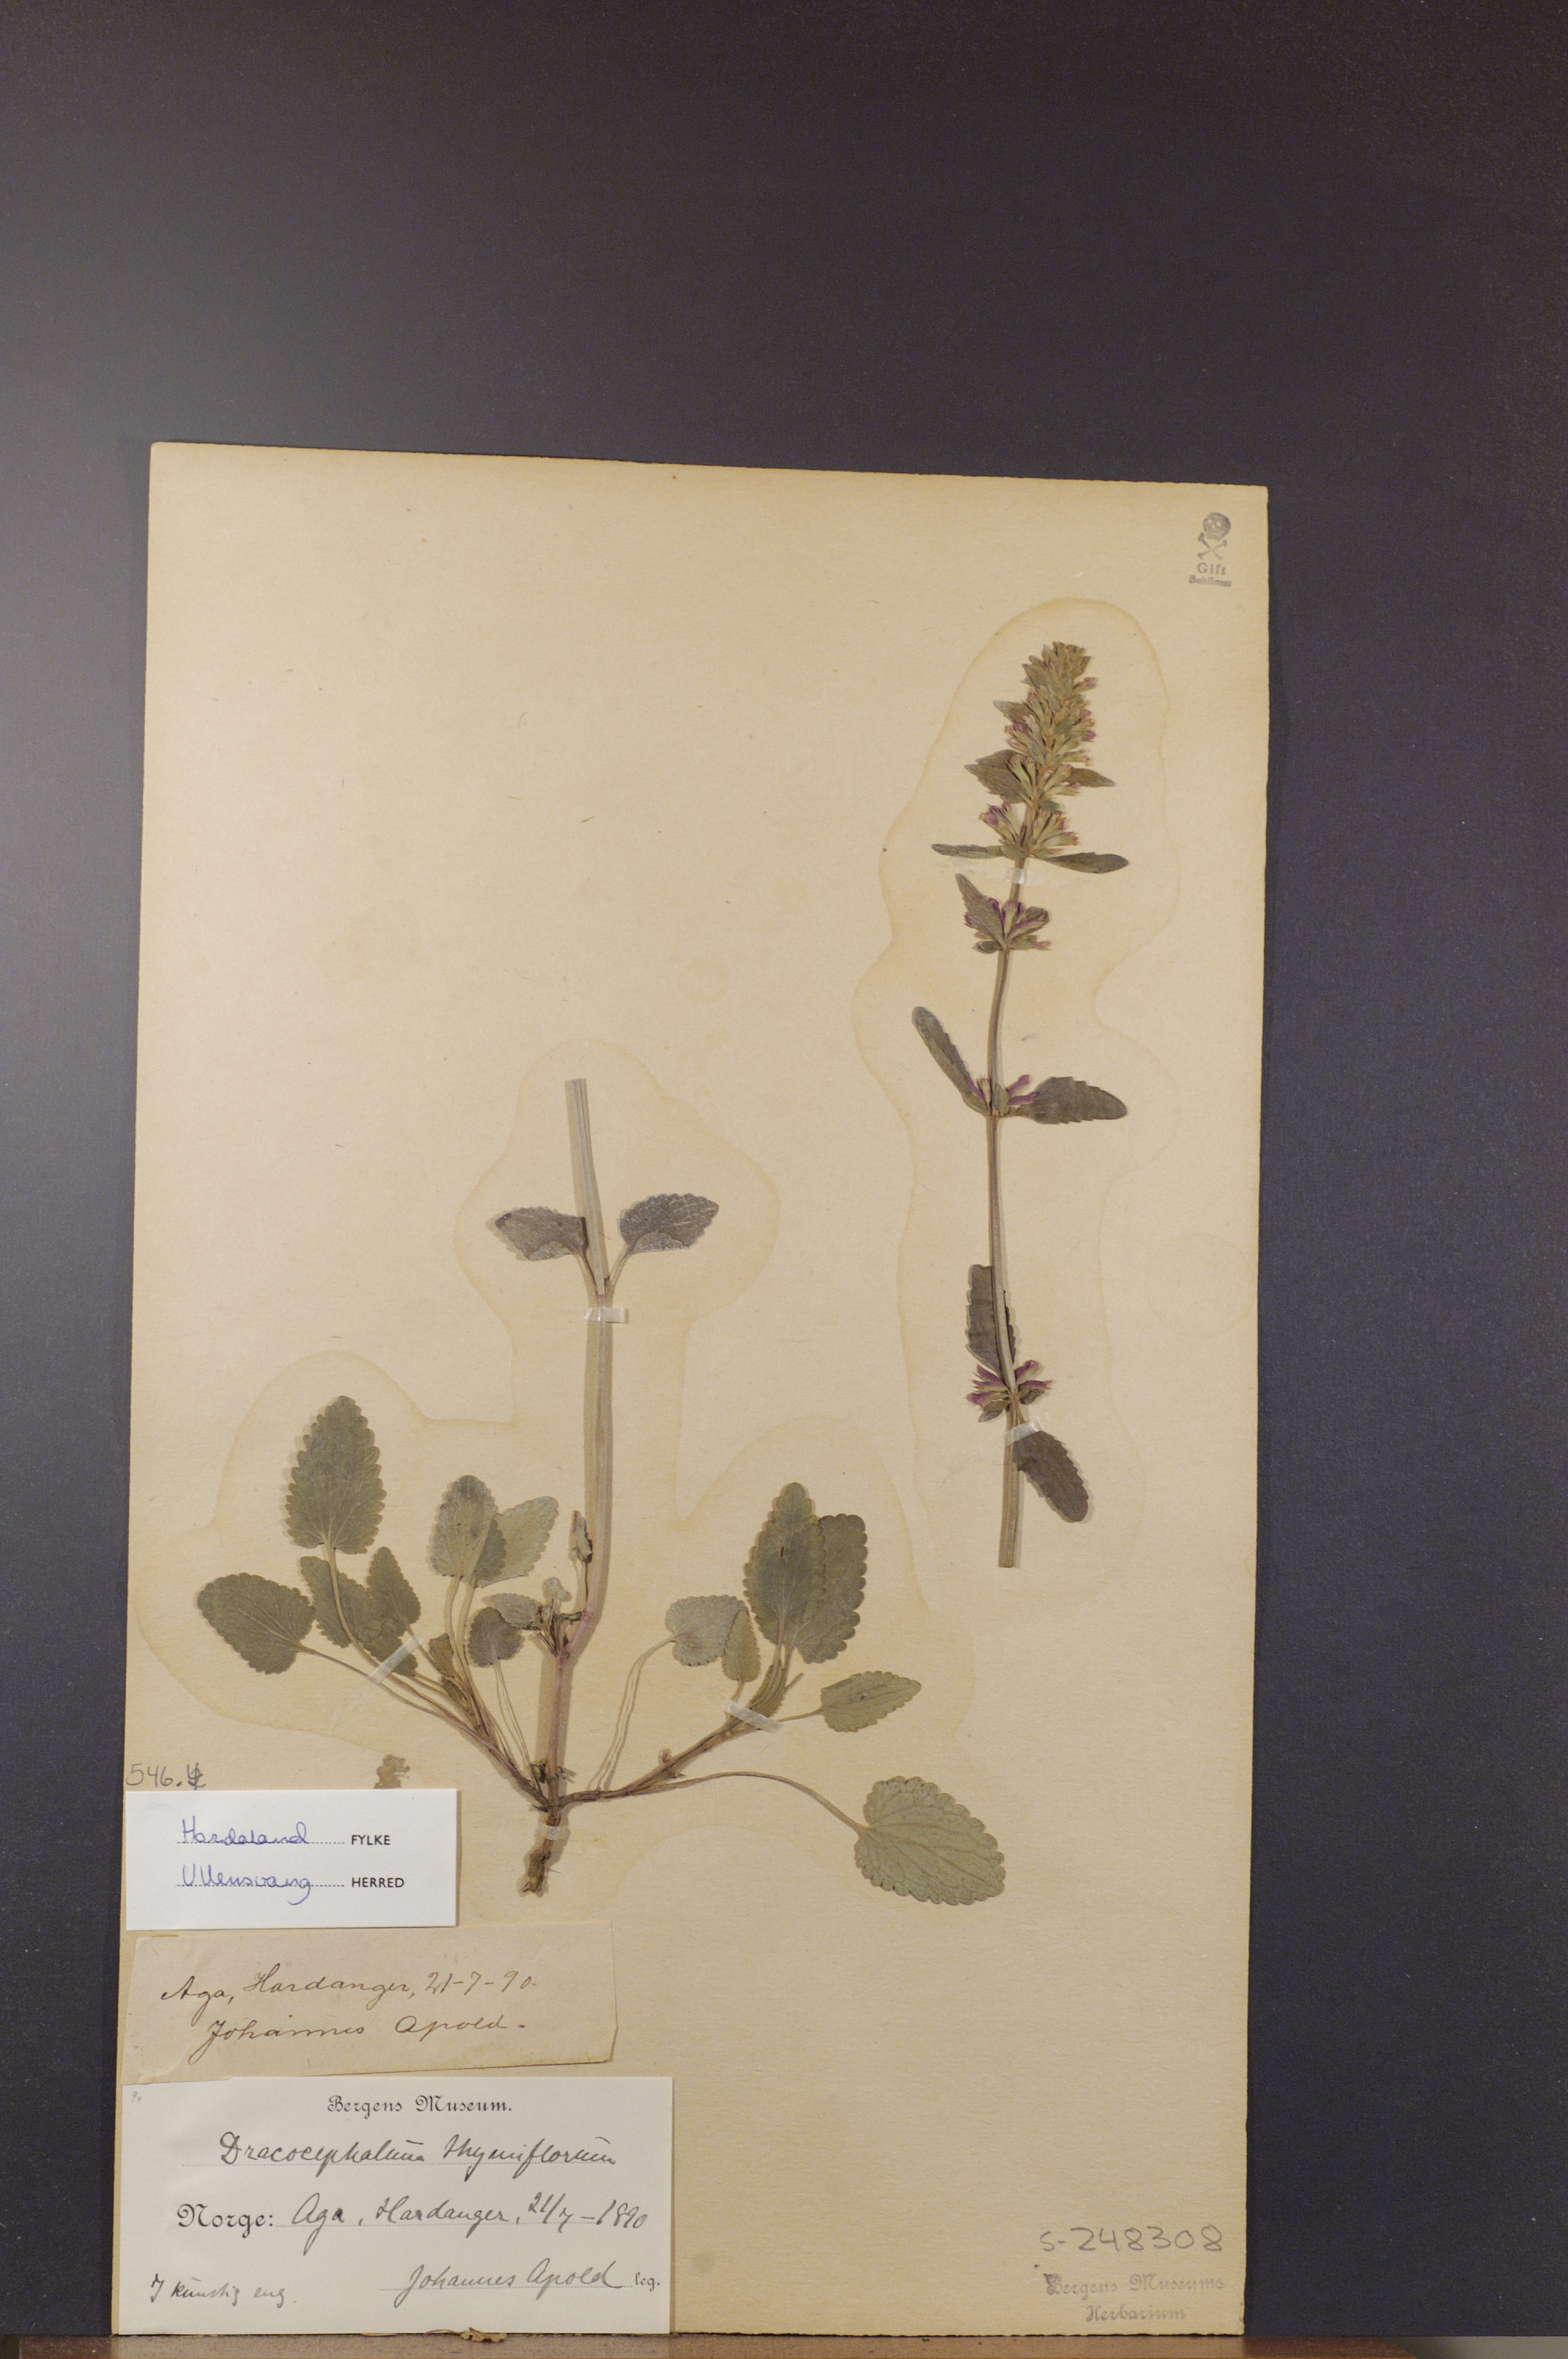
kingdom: Plantae
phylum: Tracheophyta
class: Magnoliopsida
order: Lamiales
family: Lamiaceae
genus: Dracocephalum
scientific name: Dracocephalum thymiflorum
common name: Thymeleaf dragonhead
